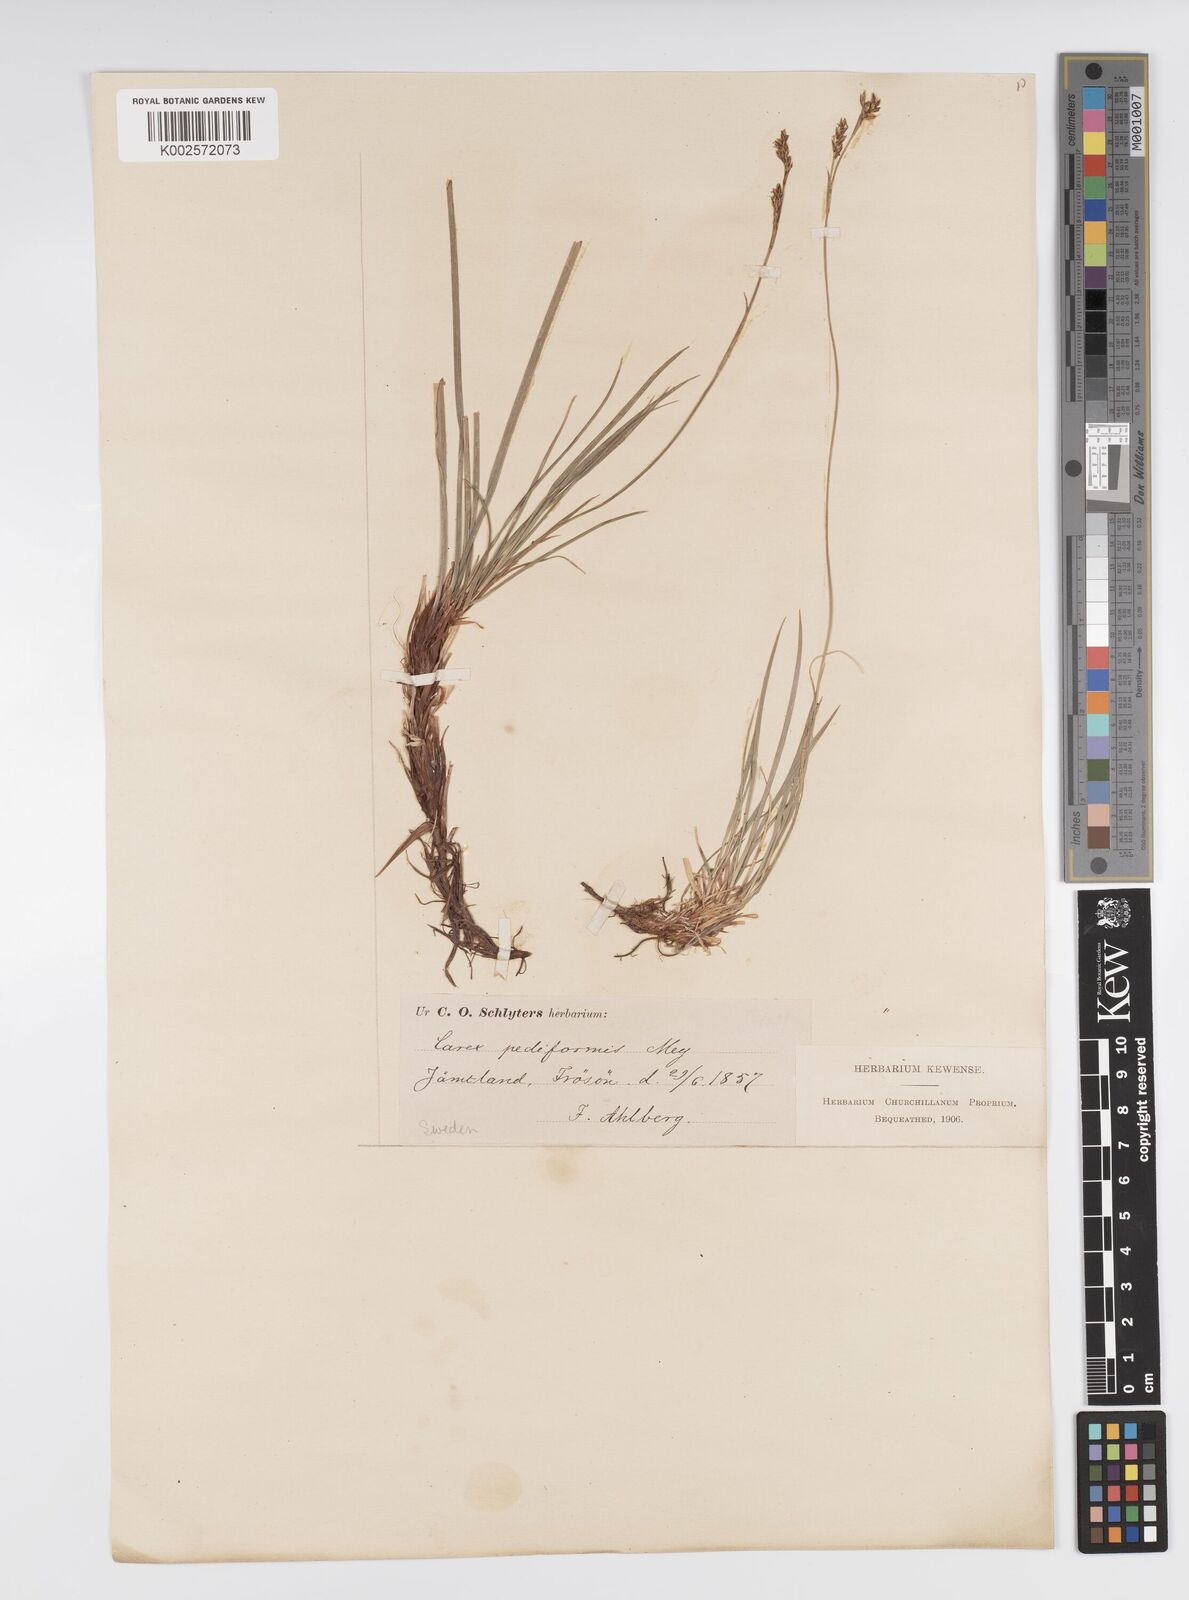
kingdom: Plantae
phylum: Tracheophyta
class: Liliopsida
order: Poales
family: Cyperaceae
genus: Carex
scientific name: Carex pediformis
